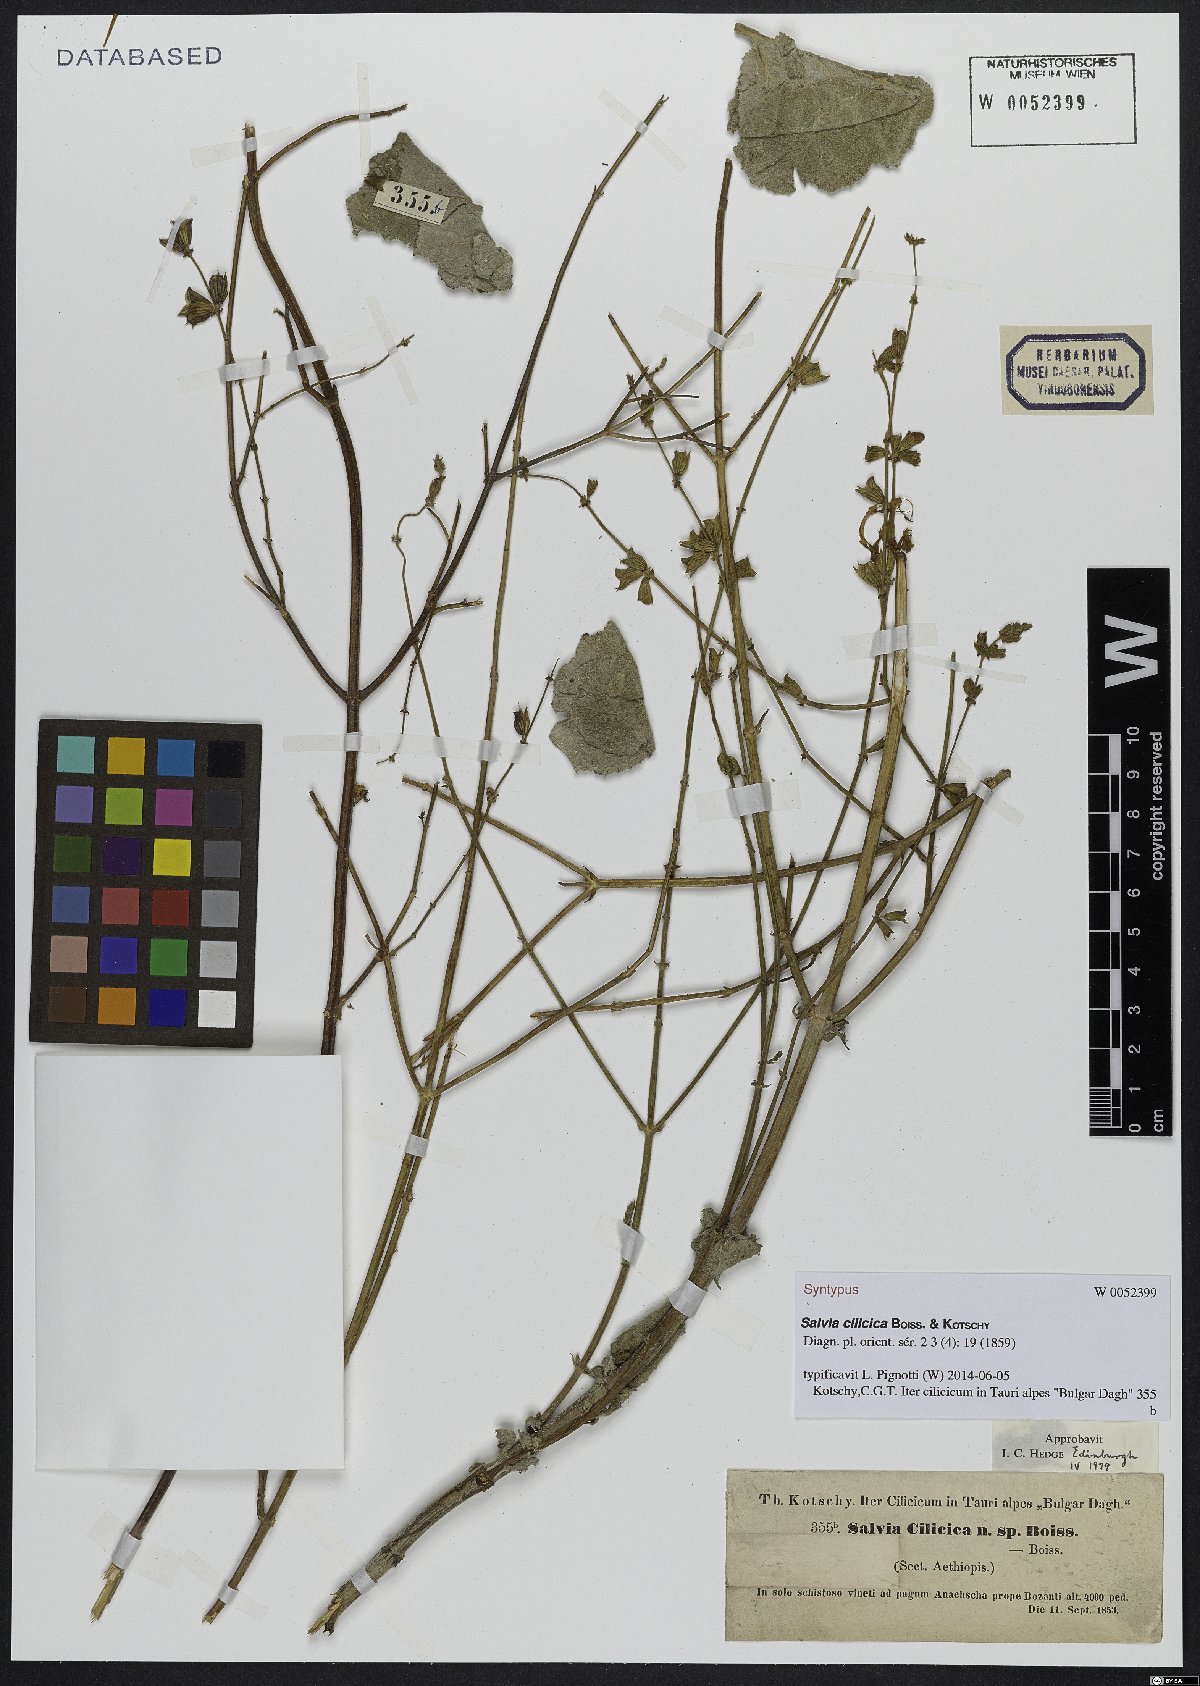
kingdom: Plantae
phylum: Tracheophyta
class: Magnoliopsida
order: Lamiales
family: Lamiaceae
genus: Salvia
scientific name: Salvia cilicica
